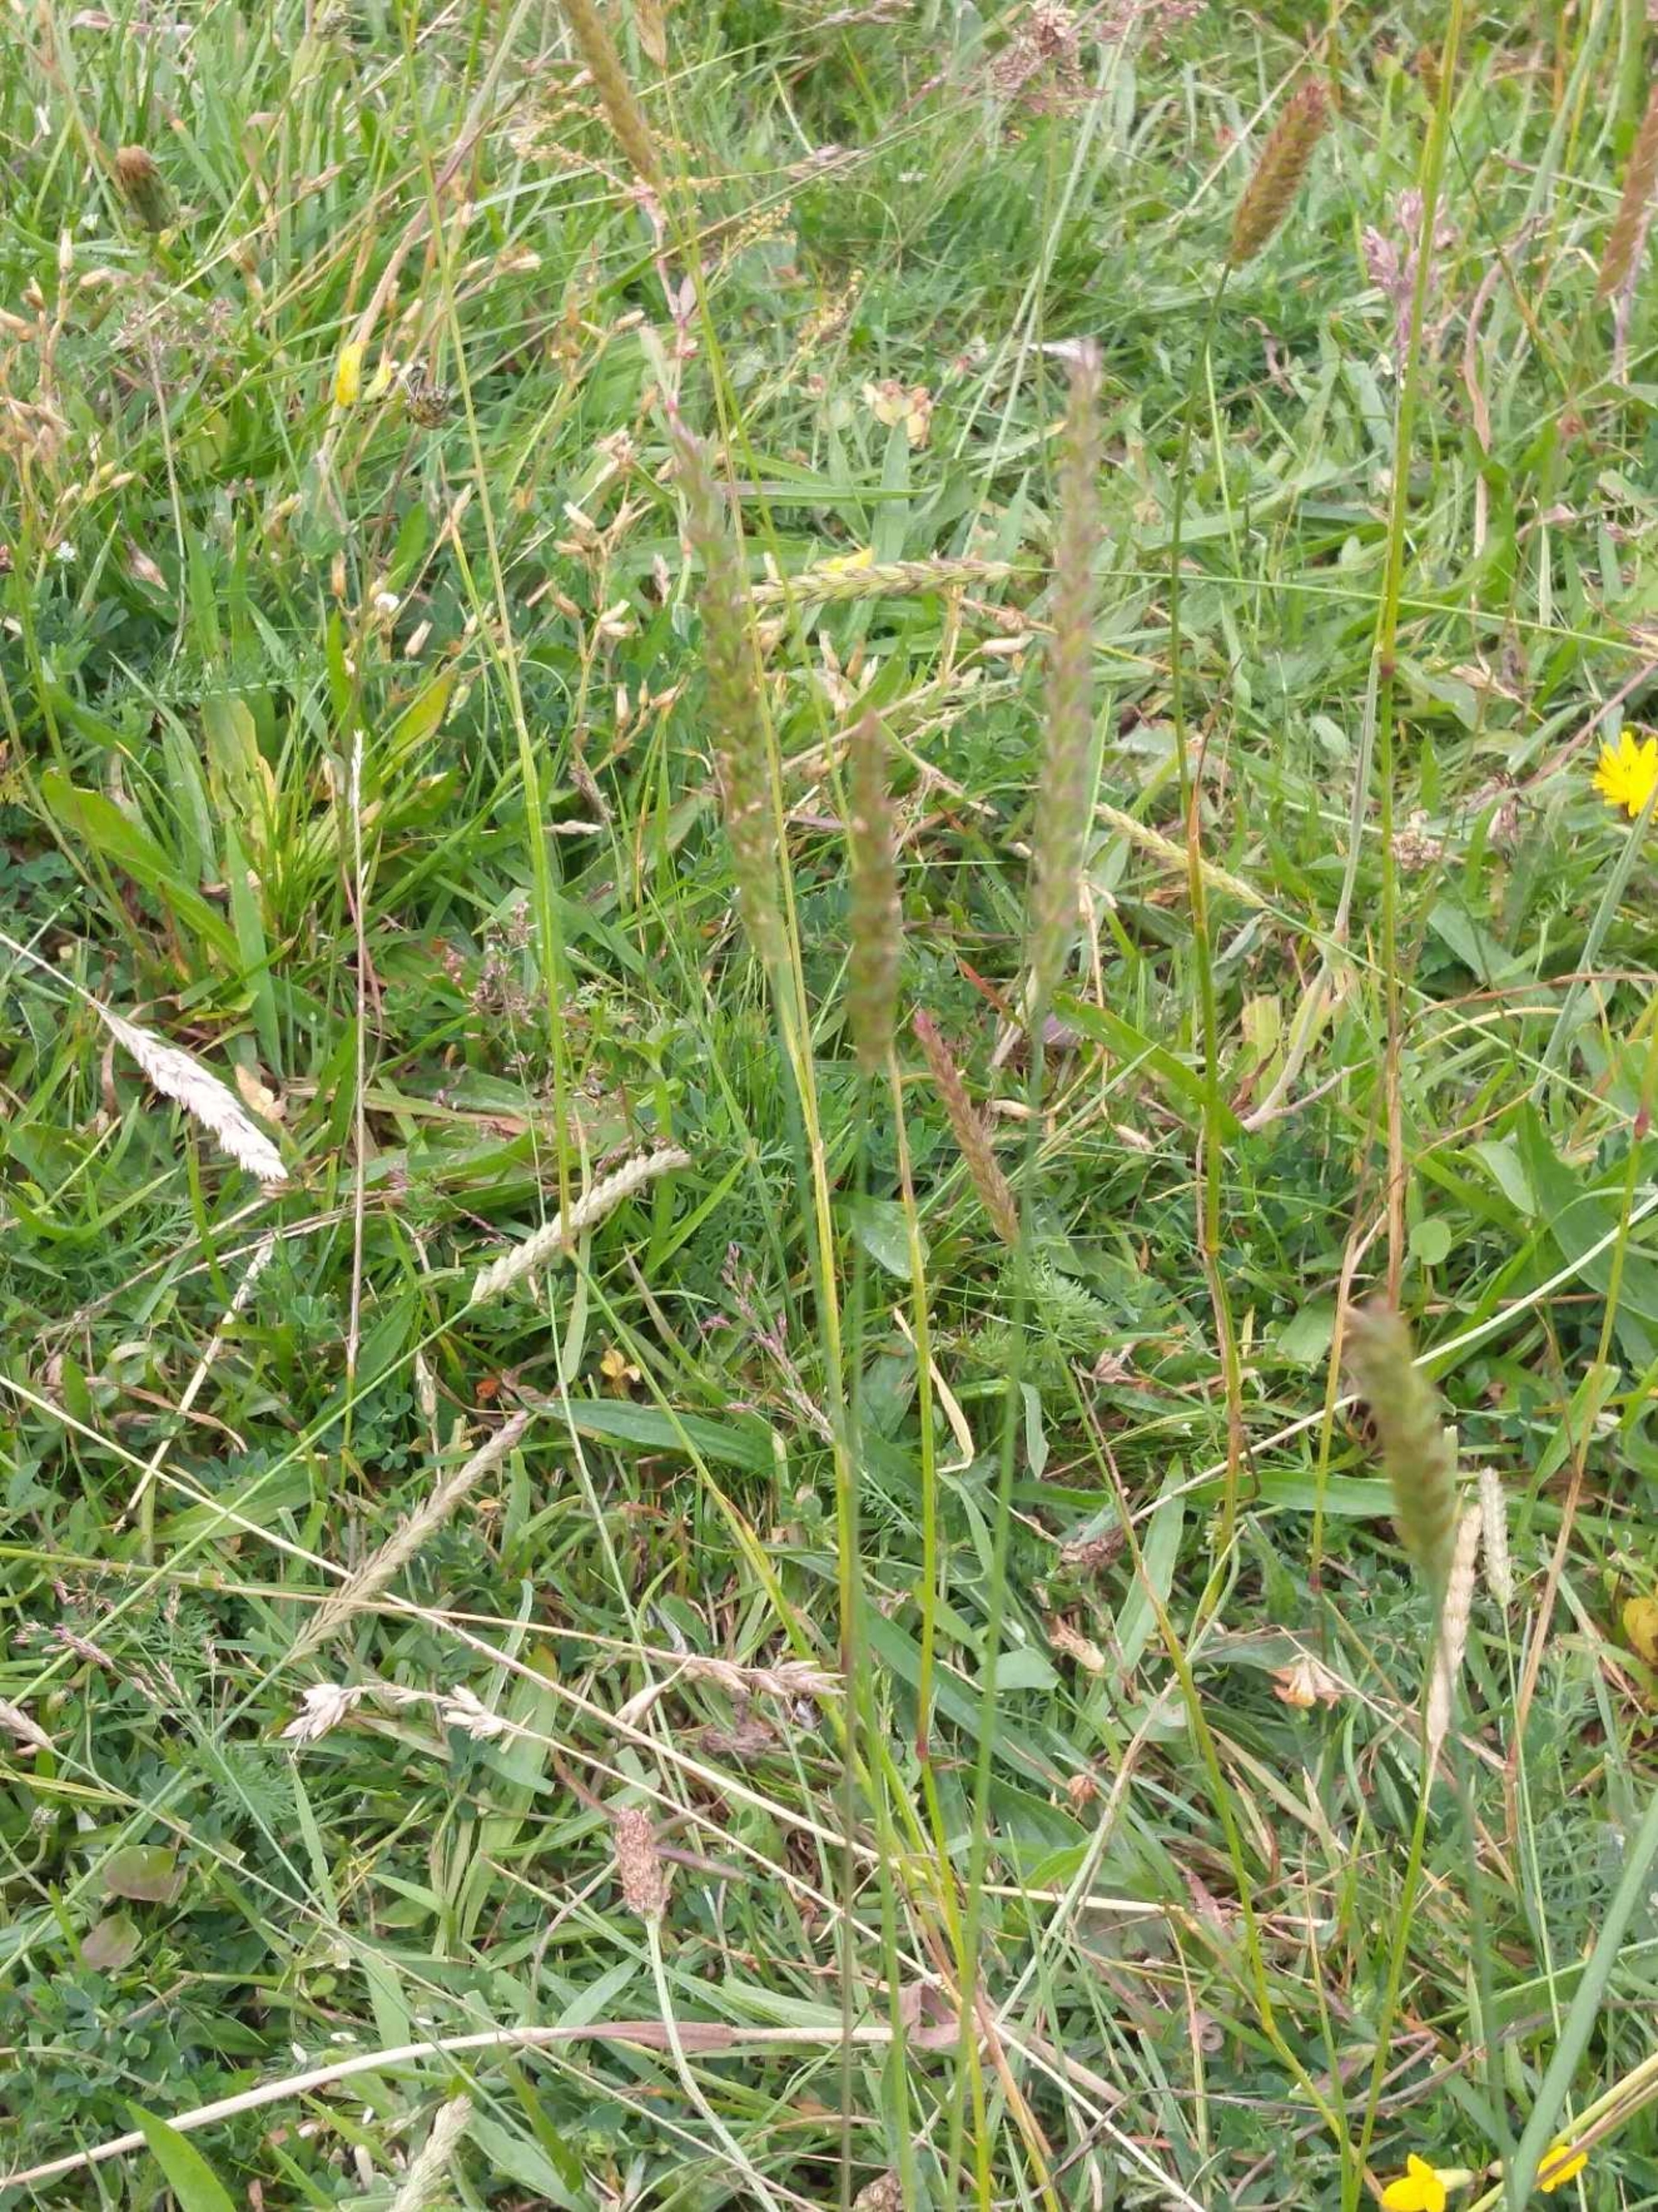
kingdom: Plantae
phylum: Tracheophyta
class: Liliopsida
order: Poales
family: Poaceae
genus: Cynosurus
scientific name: Cynosurus cristatus
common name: Kamgræs
